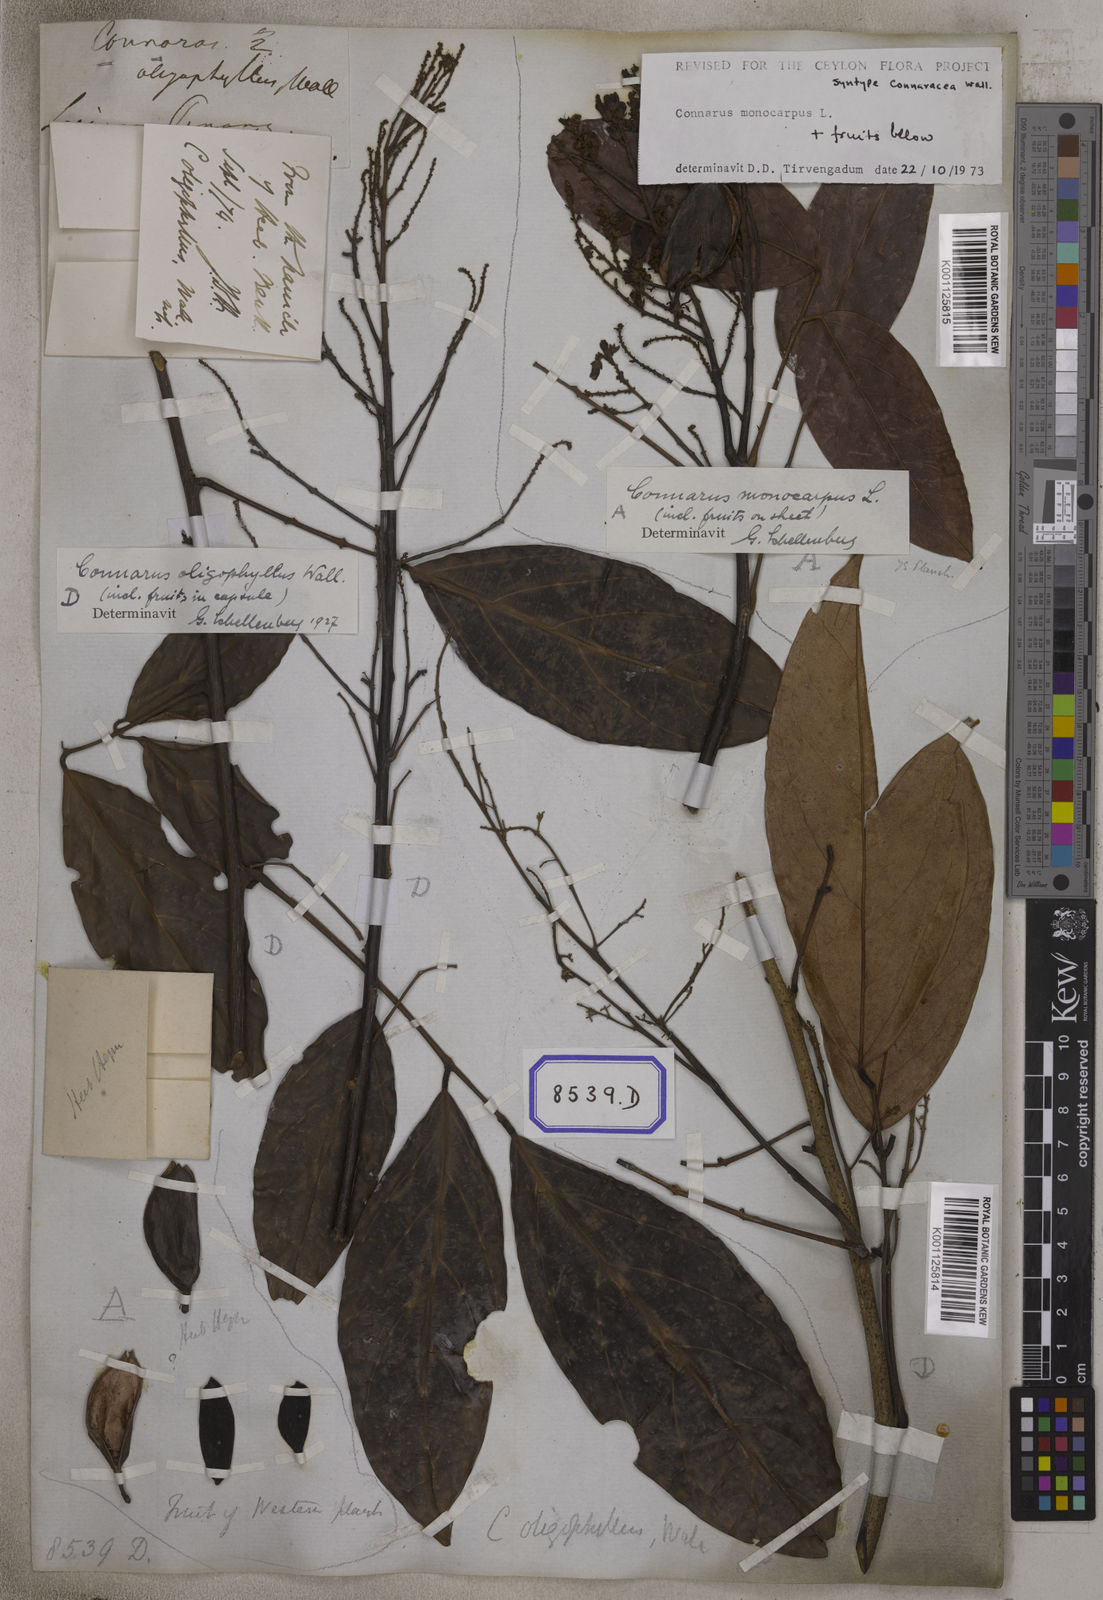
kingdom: Plantae
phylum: Tracheophyta
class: Magnoliopsida
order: Oxalidales
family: Connaraceae
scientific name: Connaraceae
